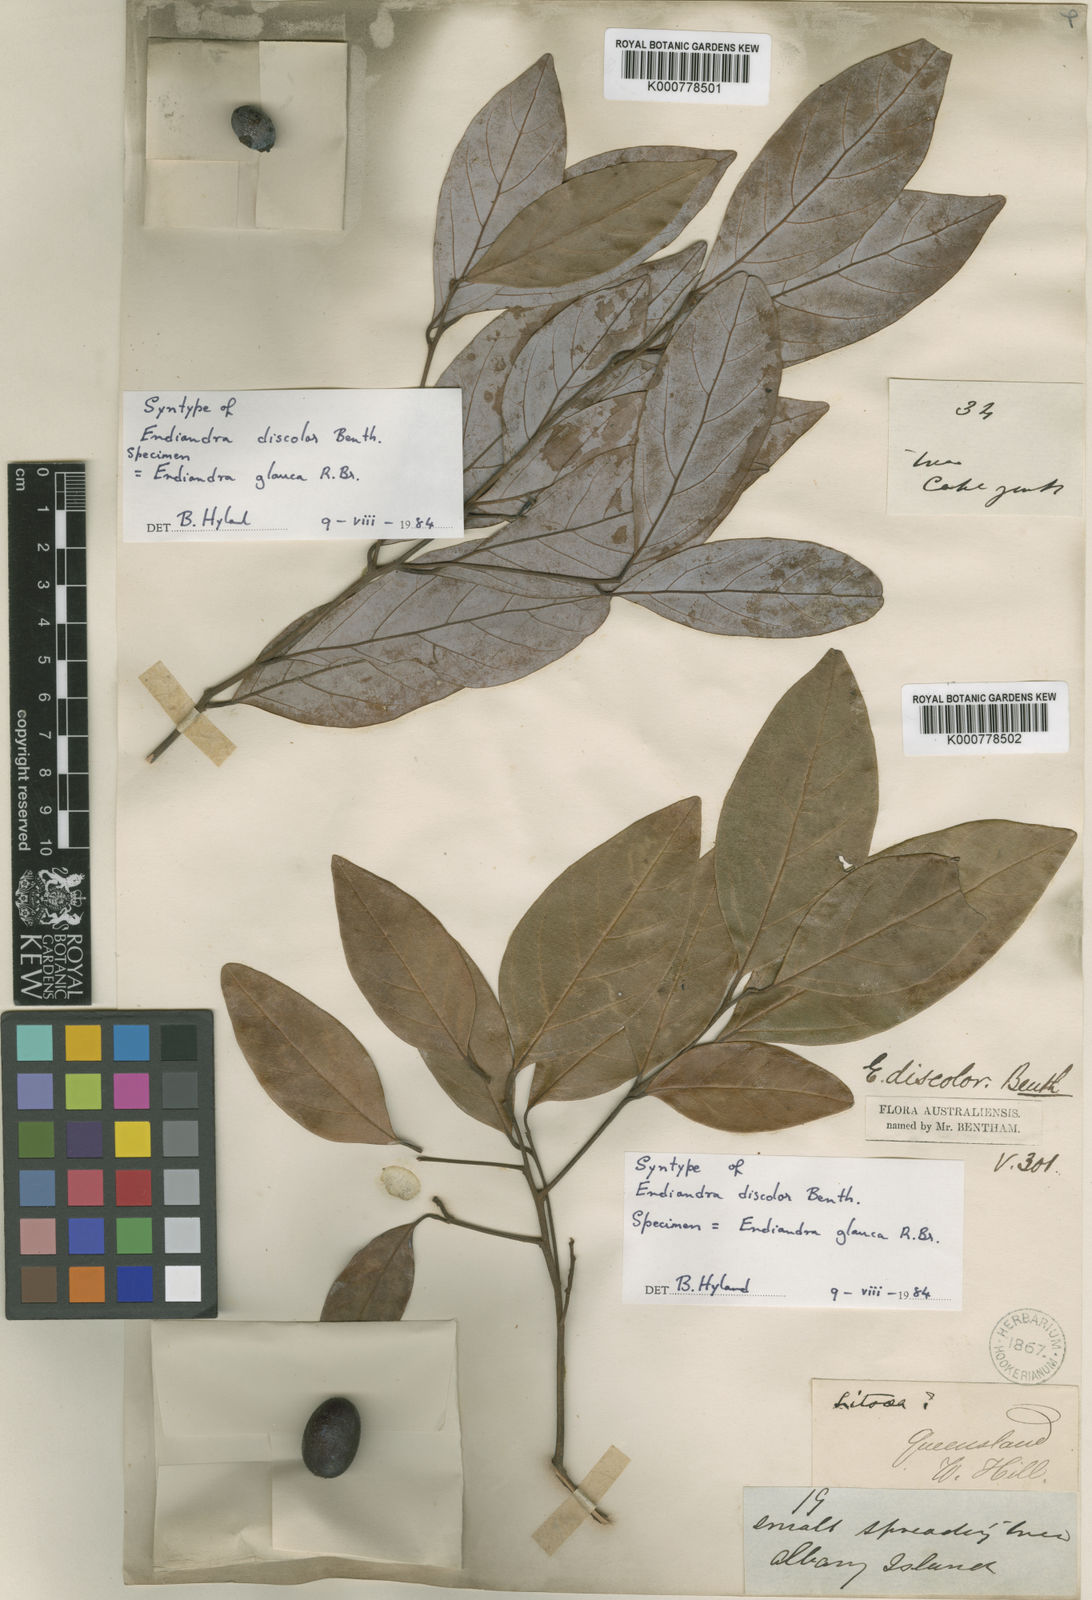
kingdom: Plantae
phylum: Tracheophyta
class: Magnoliopsida
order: Laurales
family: Lauraceae
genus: Endiandra
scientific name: Endiandra discolor
